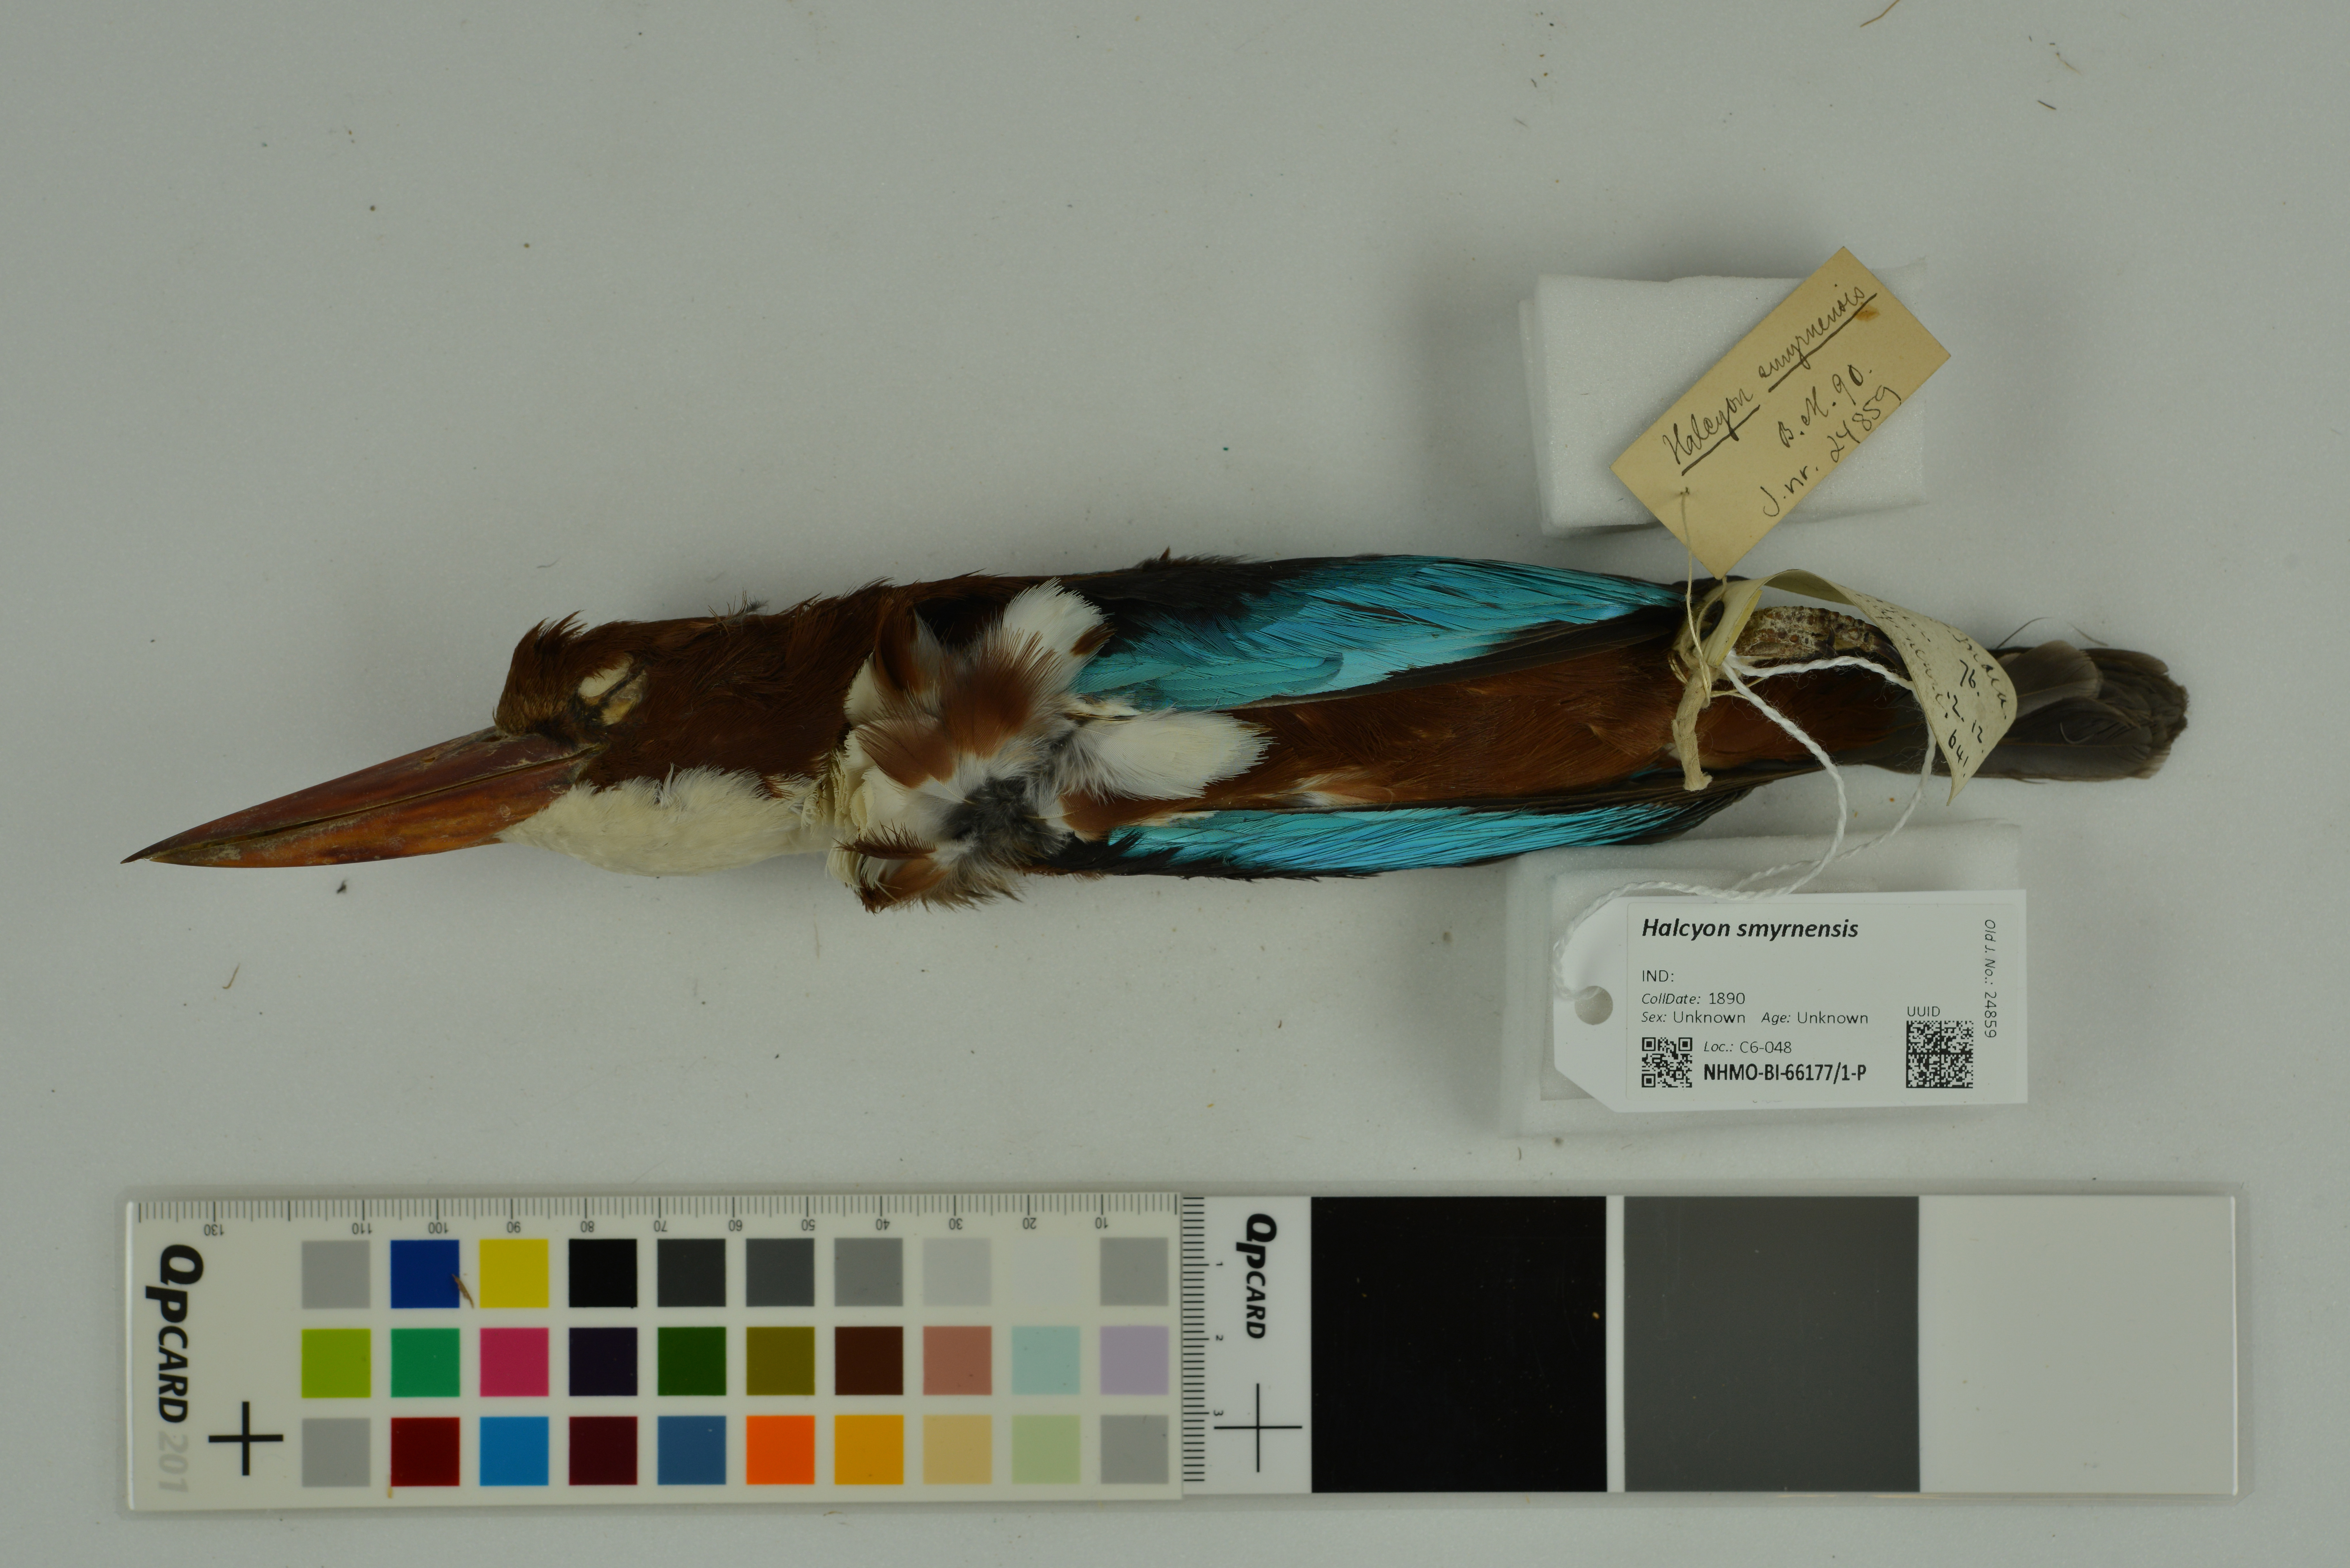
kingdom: Animalia
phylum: Chordata
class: Aves
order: Coraciiformes
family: Alcedinidae
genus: Halcyon
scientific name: Halcyon smyrnensis
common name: White-throated kingfisher
